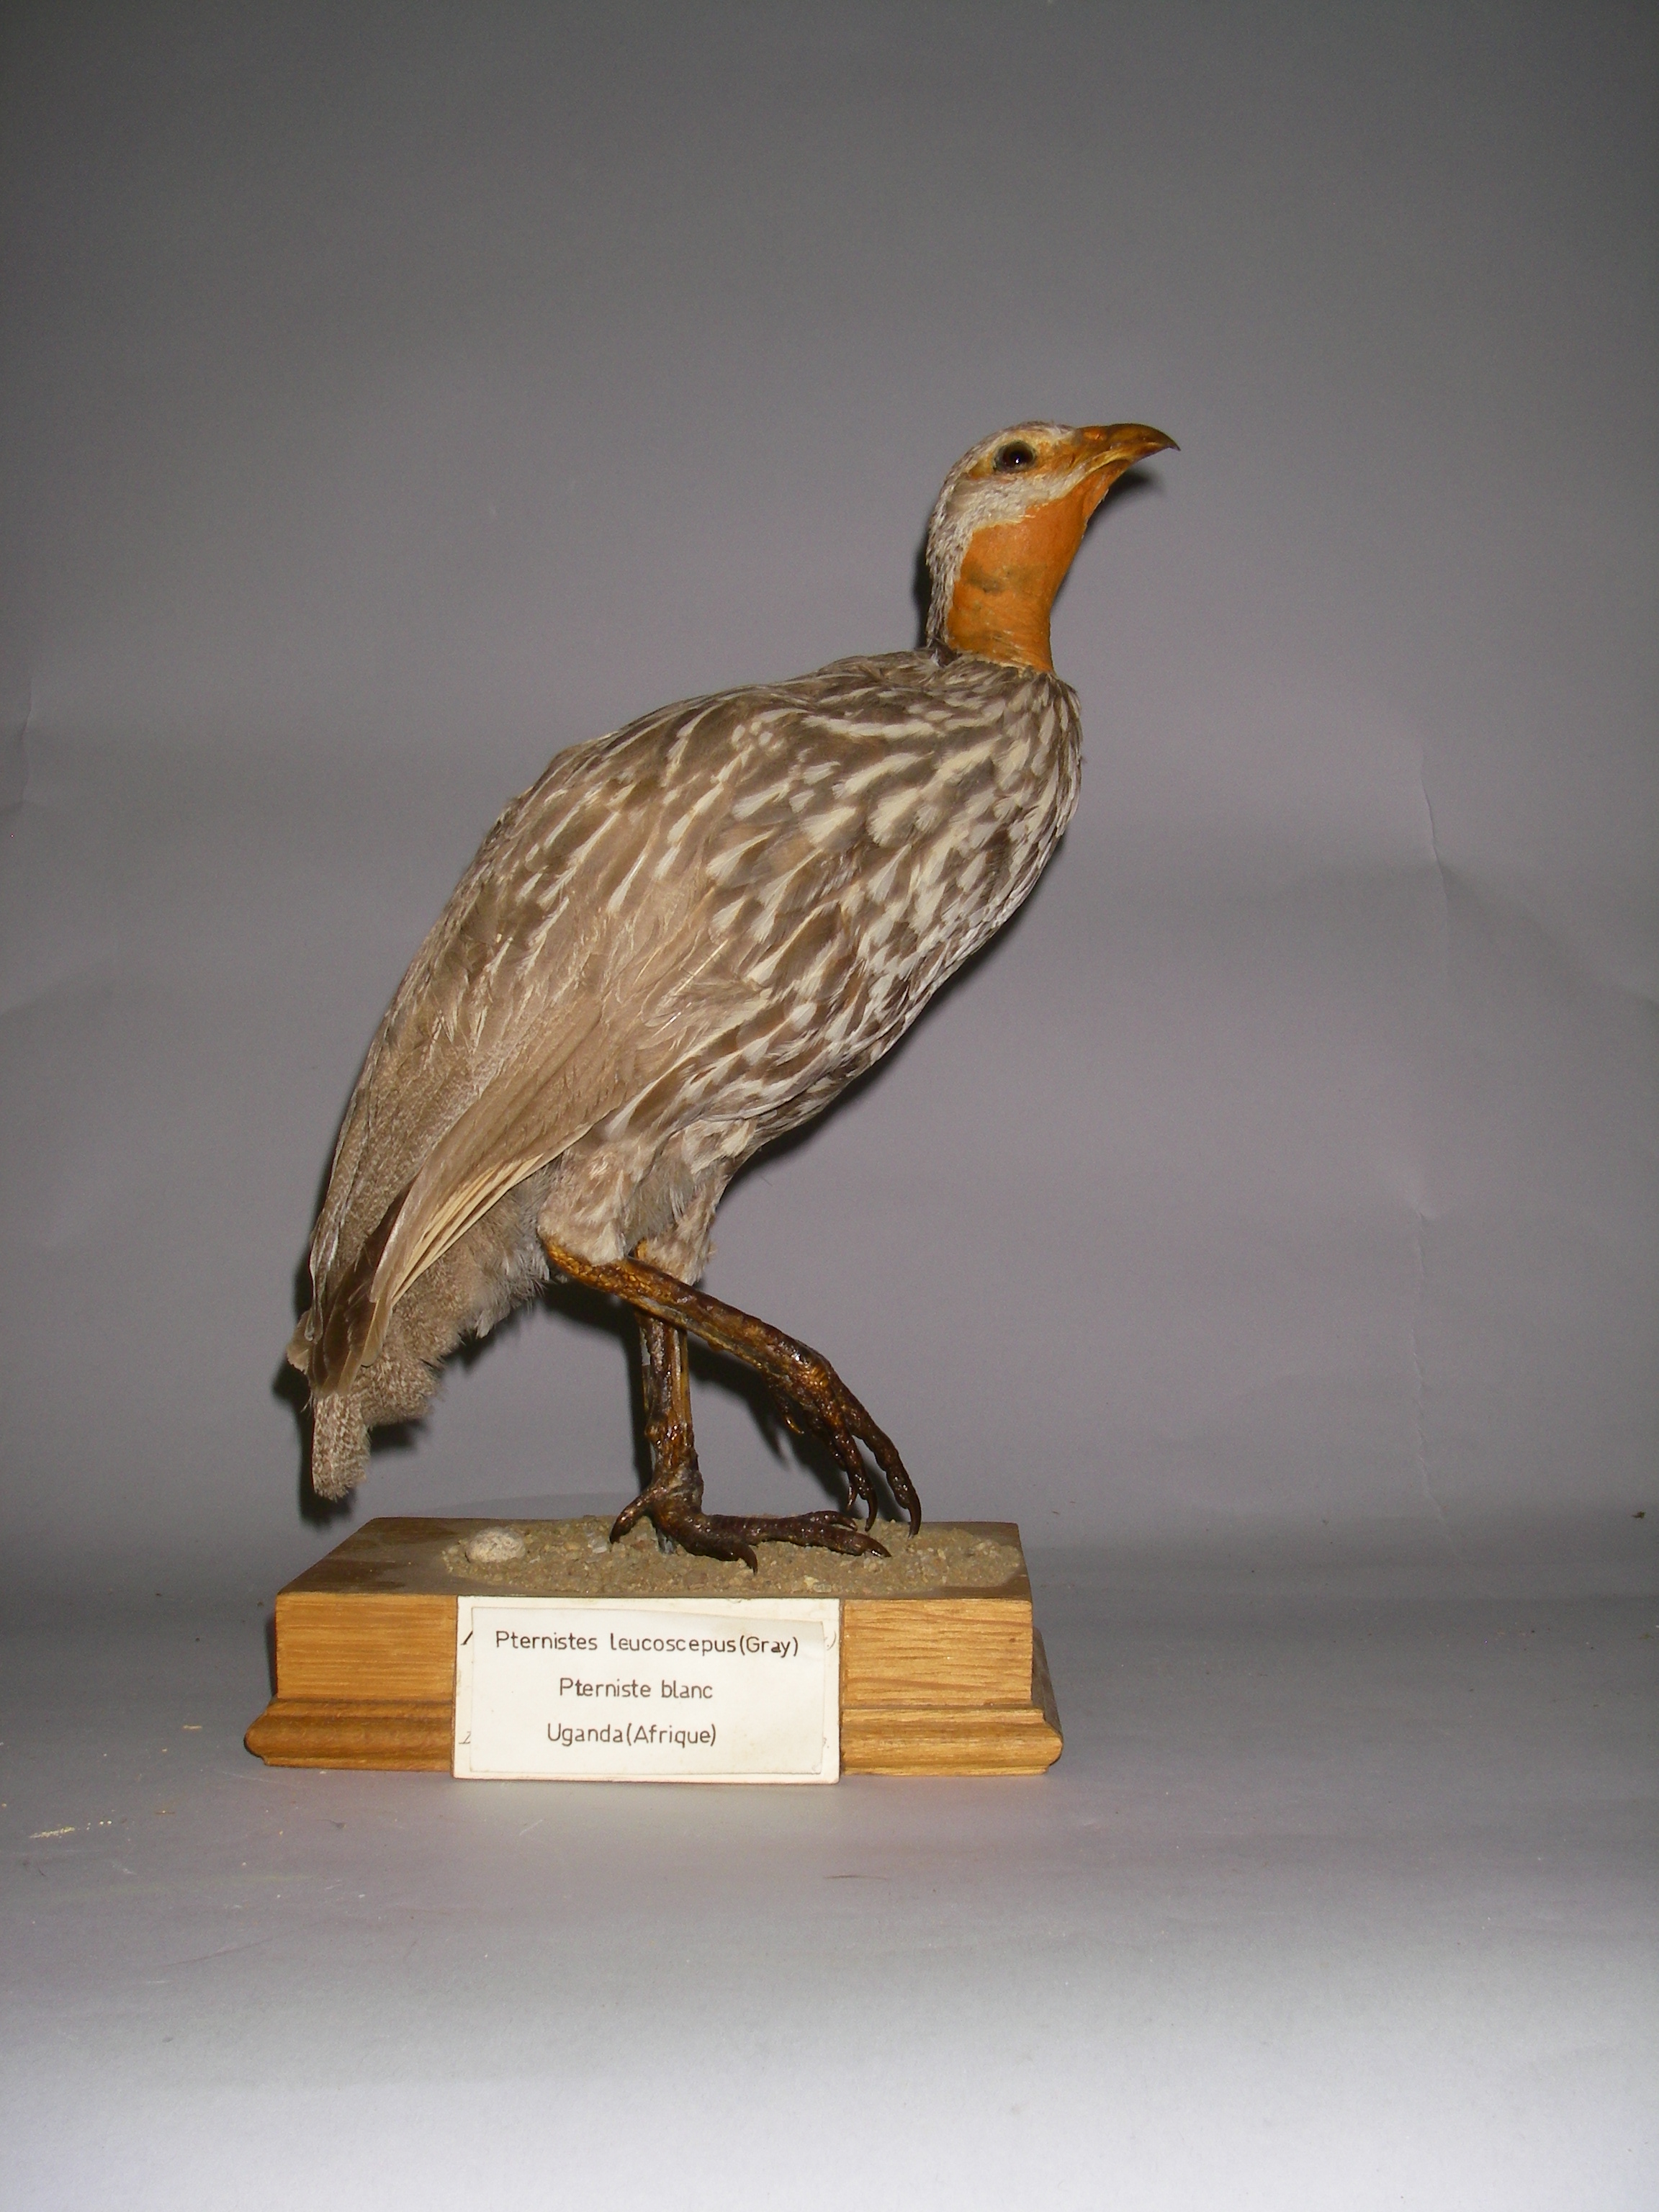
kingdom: Animalia
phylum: Chordata
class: Aves
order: Galliformes
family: Phasianidae
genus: Pternistis
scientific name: Pternistis leucoscepus
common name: Yellow-necked spurfowl
